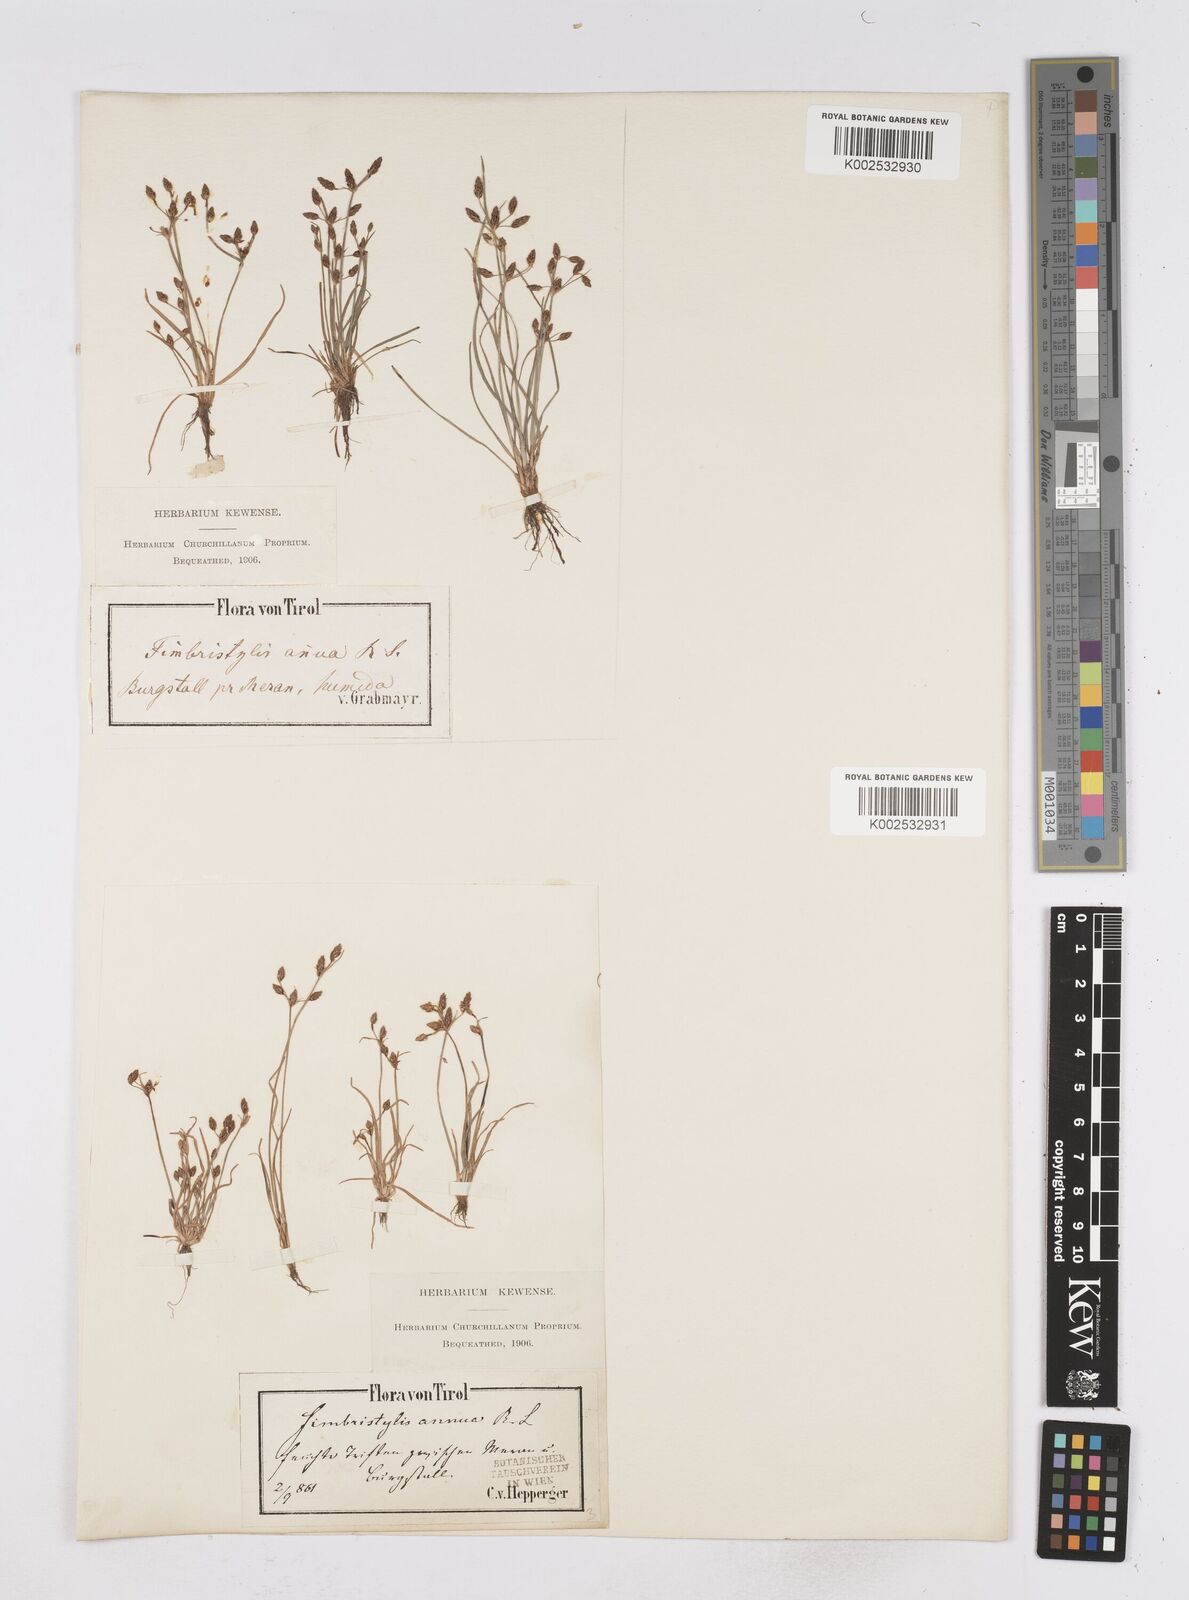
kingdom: Plantae
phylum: Tracheophyta
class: Liliopsida
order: Poales
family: Cyperaceae
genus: Fimbristylis
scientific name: Fimbristylis dichotoma
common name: Forked fimbry
